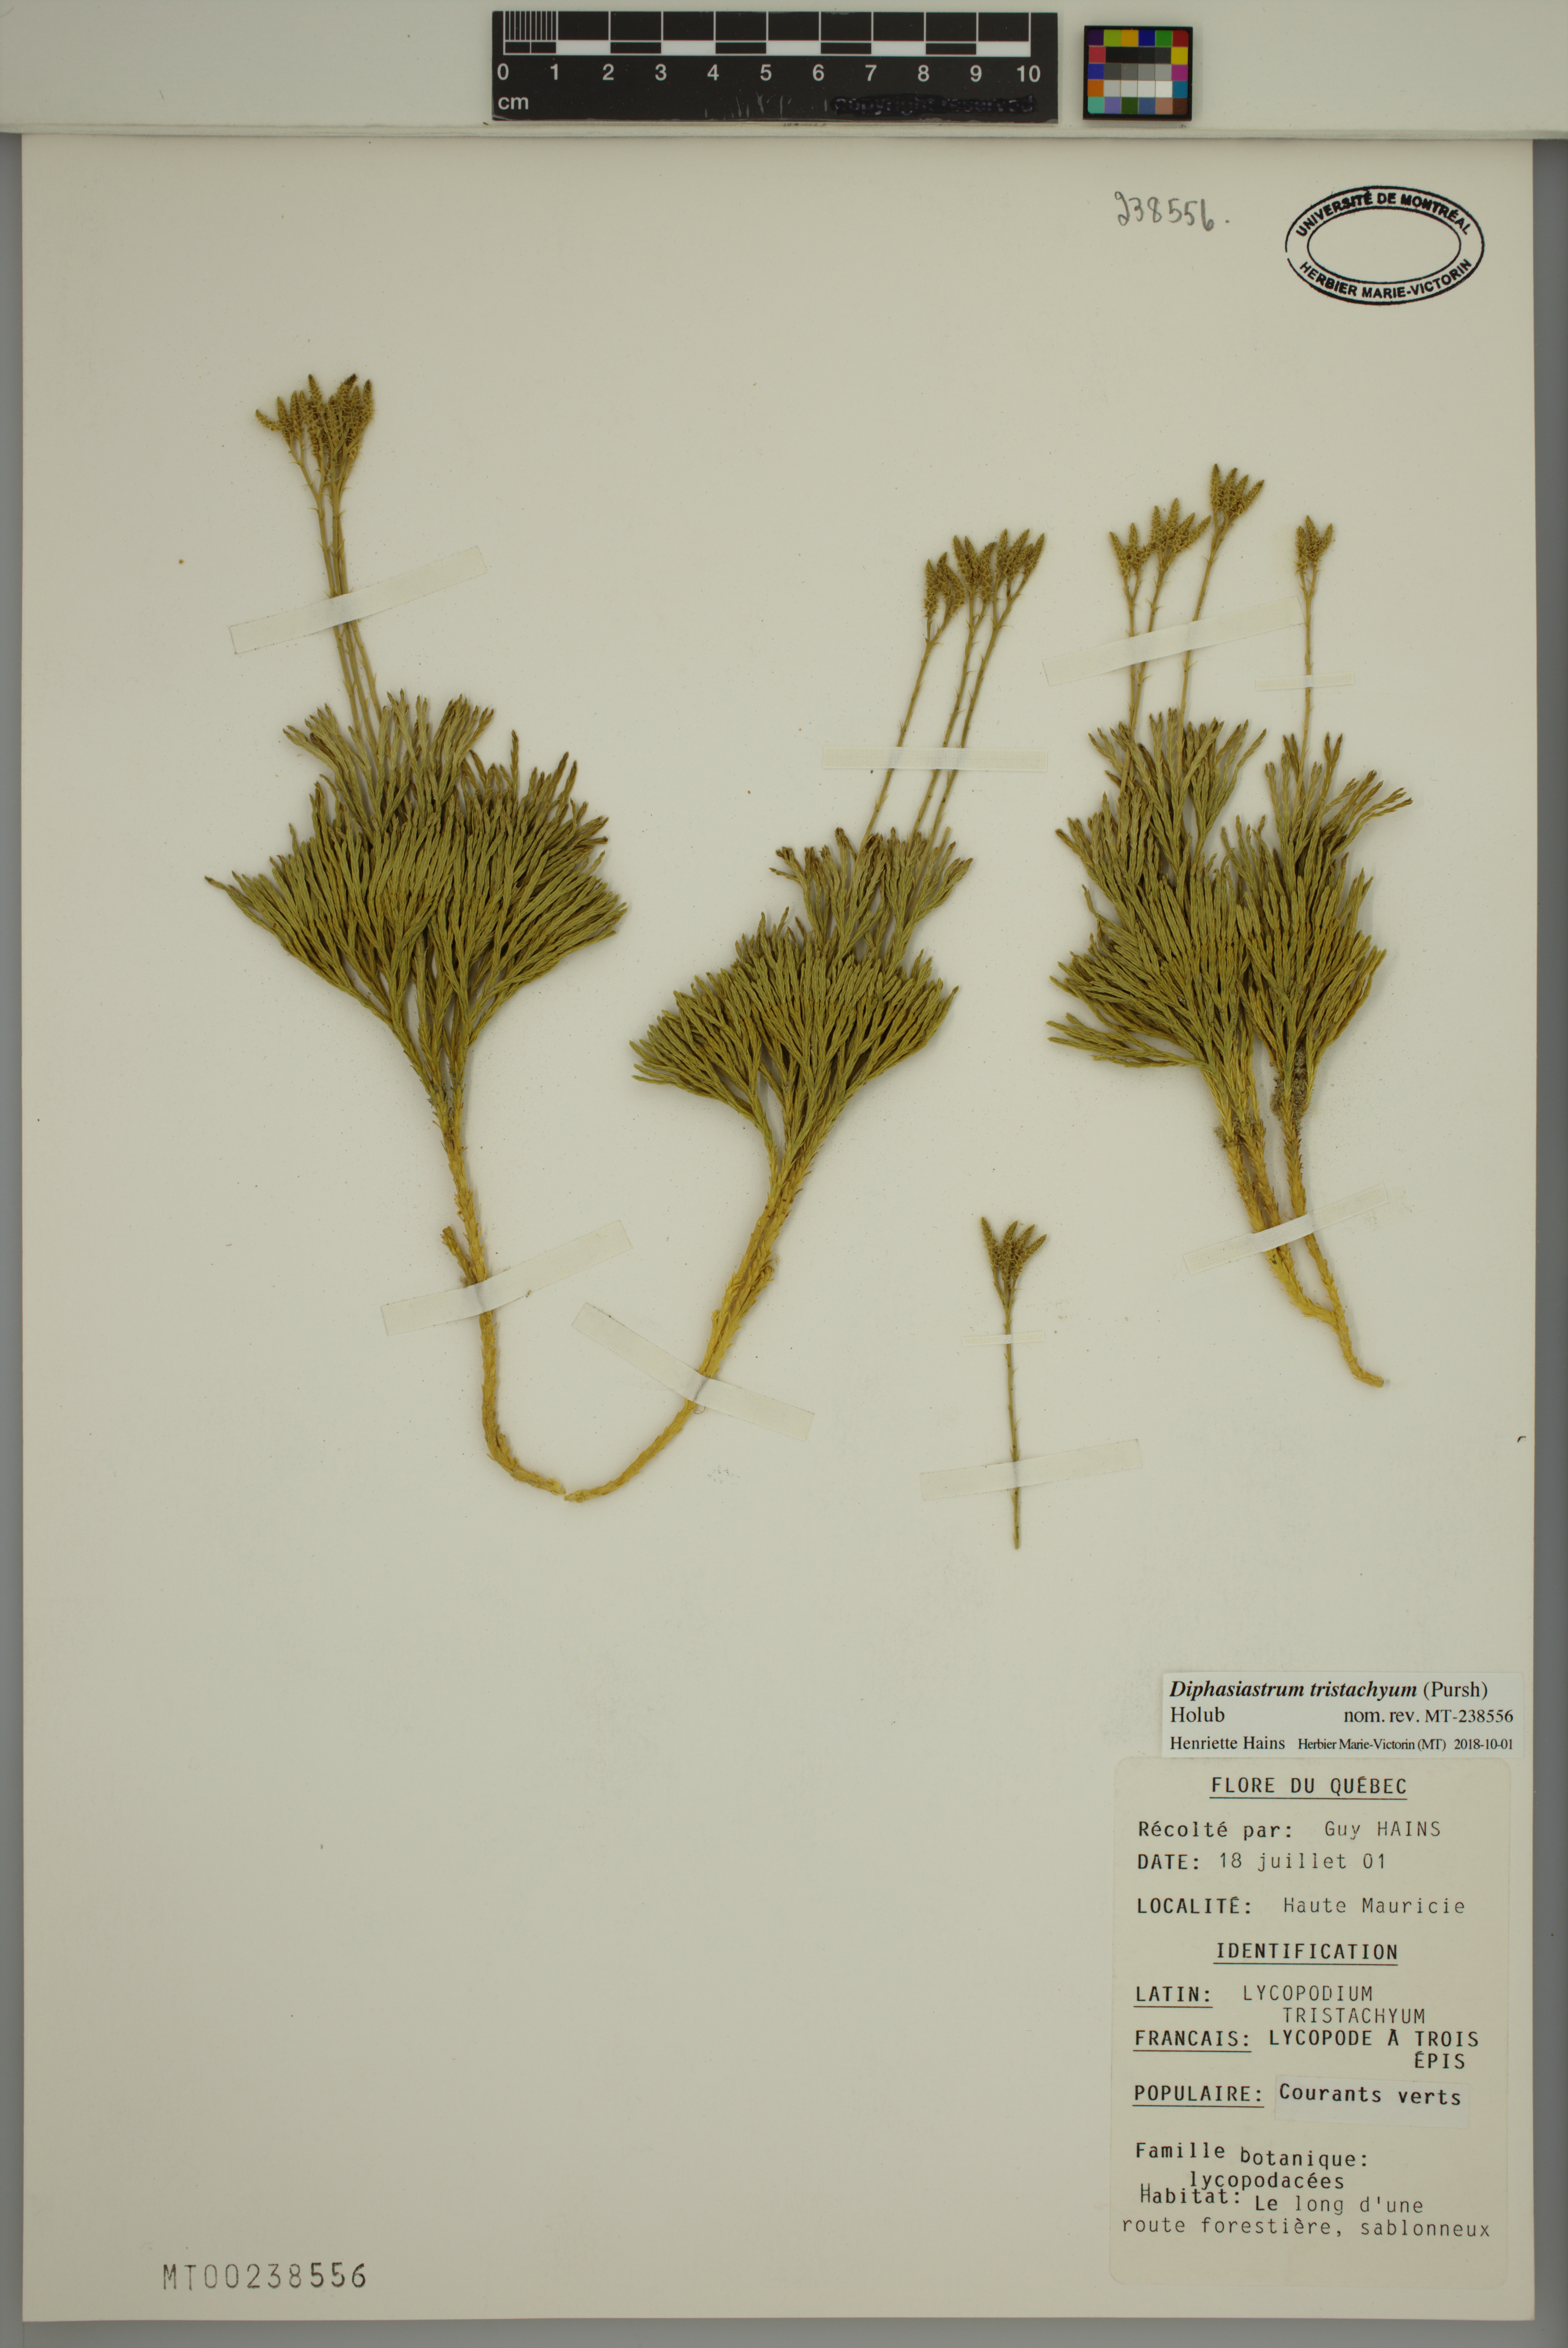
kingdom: Plantae
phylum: Tracheophyta
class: Lycopodiopsida
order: Lycopodiales
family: Lycopodiaceae
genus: Diphasiastrum
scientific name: Diphasiastrum tristachyum
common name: Blue ground-cedar
